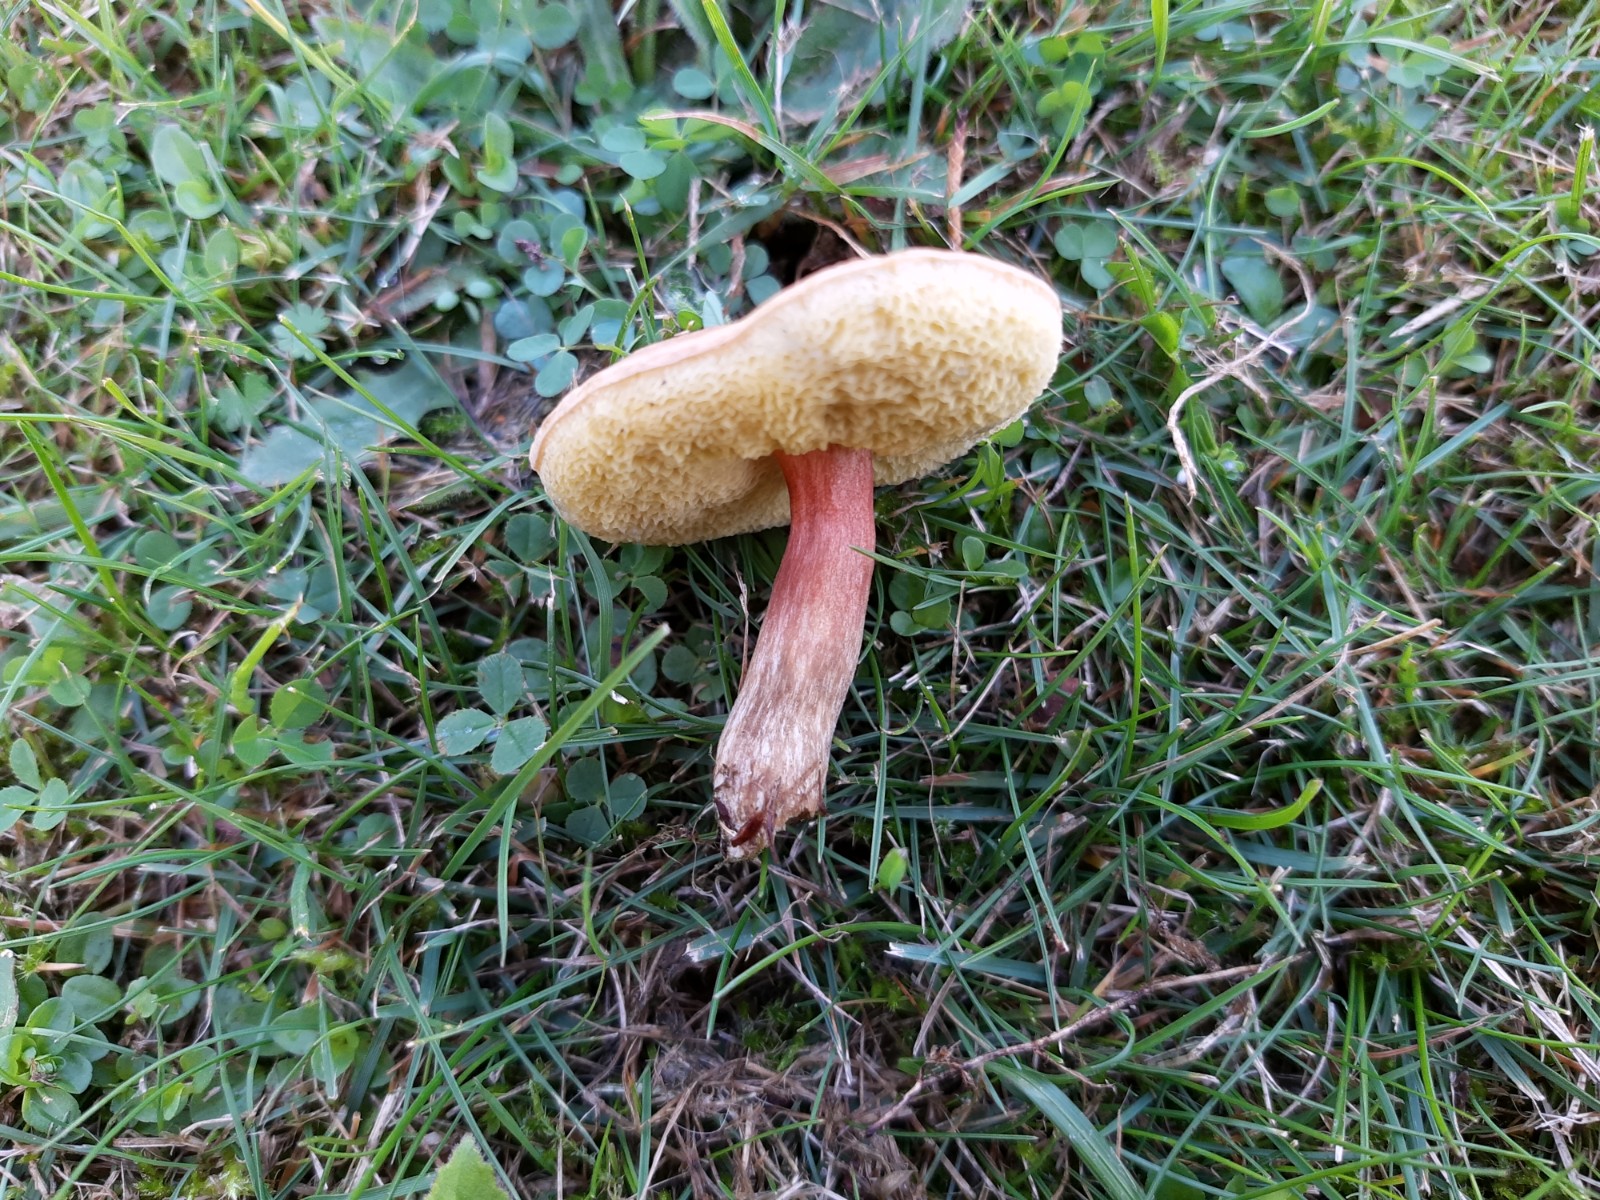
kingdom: Fungi
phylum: Basidiomycota
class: Agaricomycetes
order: Boletales
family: Boletaceae
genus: Hortiboletus
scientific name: Hortiboletus bubalinus
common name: aurora-rørhat
